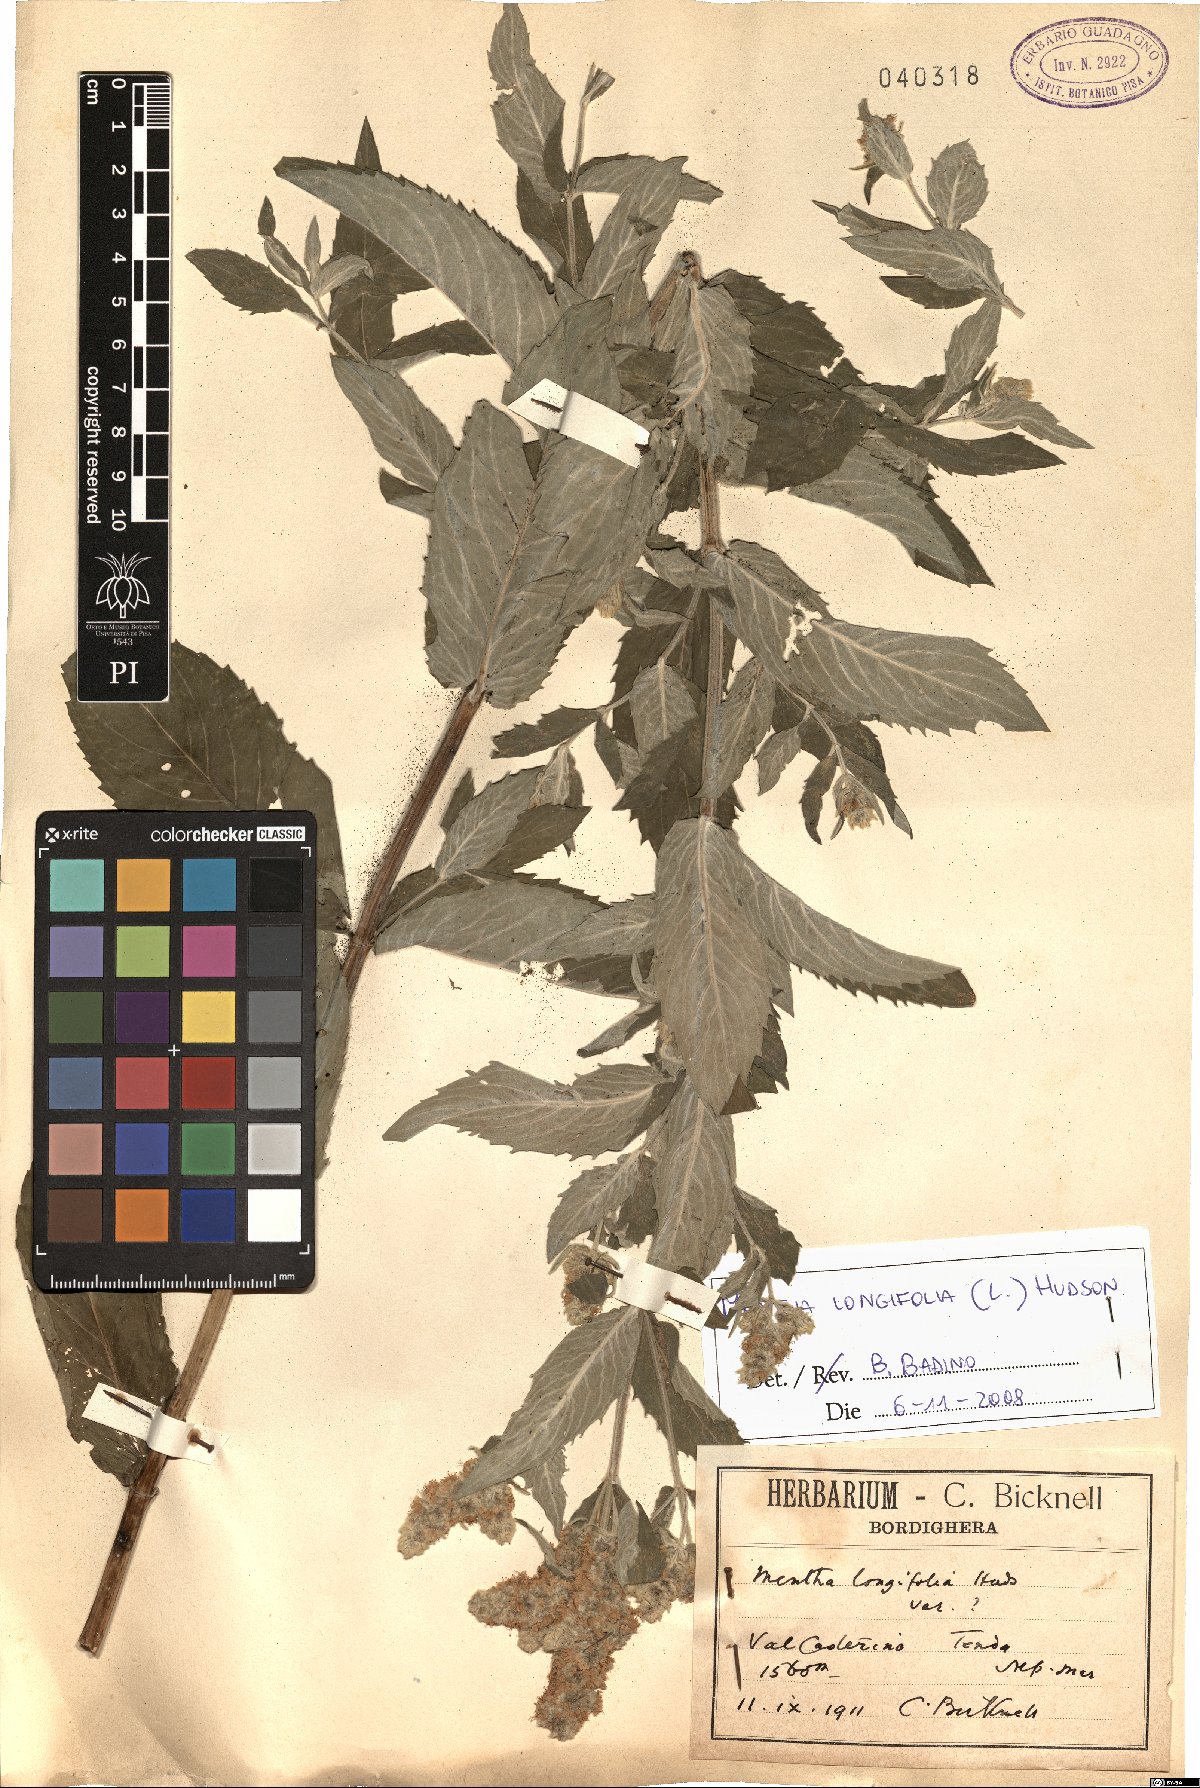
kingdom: Plantae
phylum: Tracheophyta
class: Magnoliopsida
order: Lamiales
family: Lamiaceae
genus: Mentha
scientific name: Mentha longifolia
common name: Horse mint
